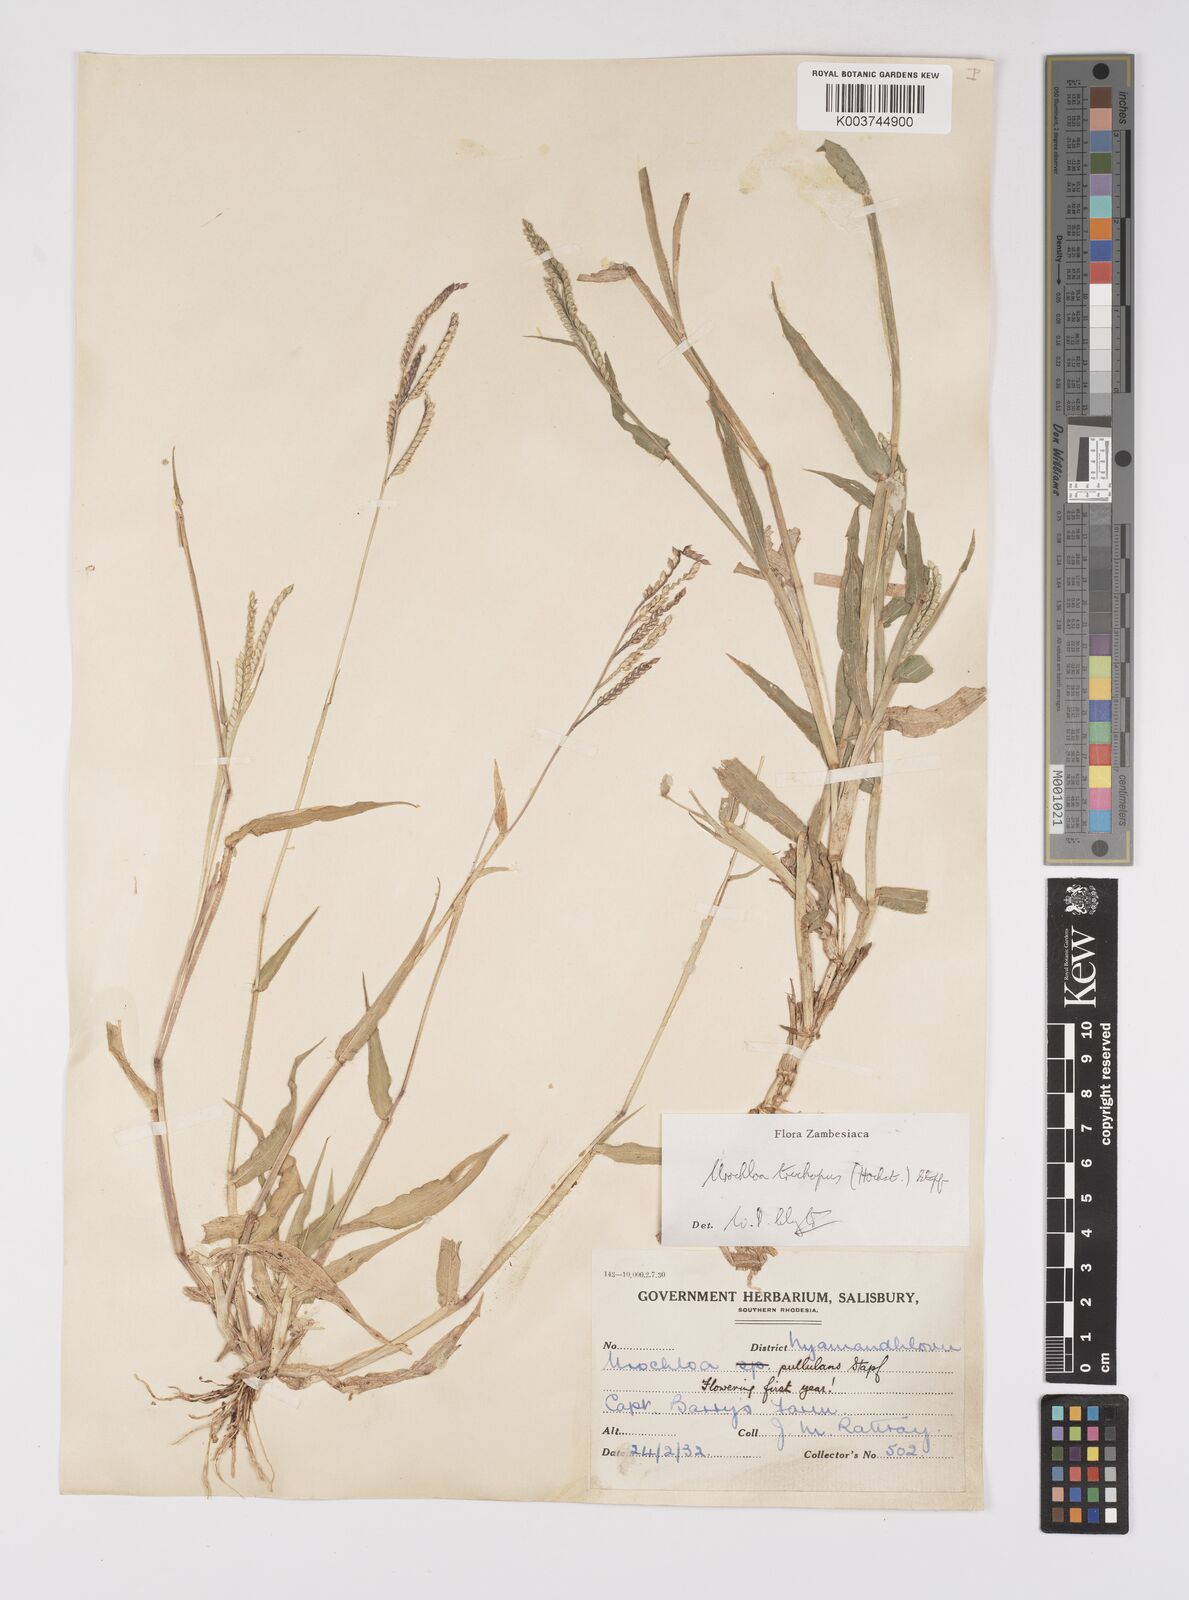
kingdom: Plantae
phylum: Tracheophyta
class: Liliopsida
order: Poales
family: Poaceae
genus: Urochloa
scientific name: Urochloa trichopus
